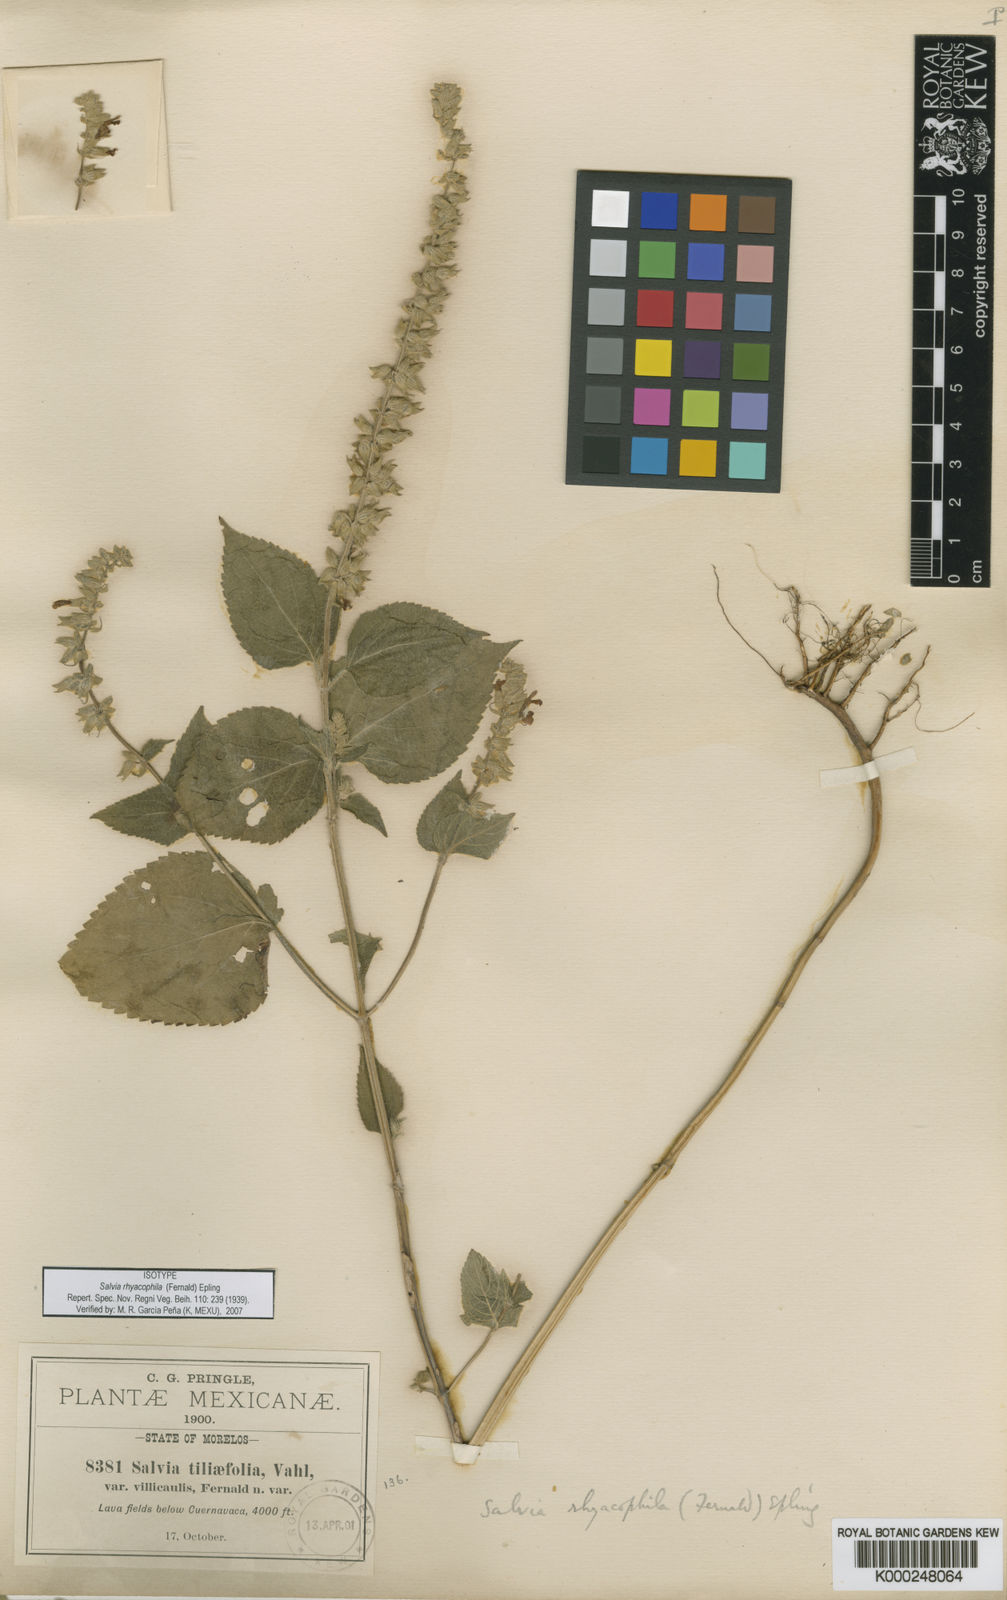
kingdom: Plantae
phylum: Tracheophyta
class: Magnoliopsida
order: Lamiales
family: Lamiaceae
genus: Salvia
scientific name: Salvia
